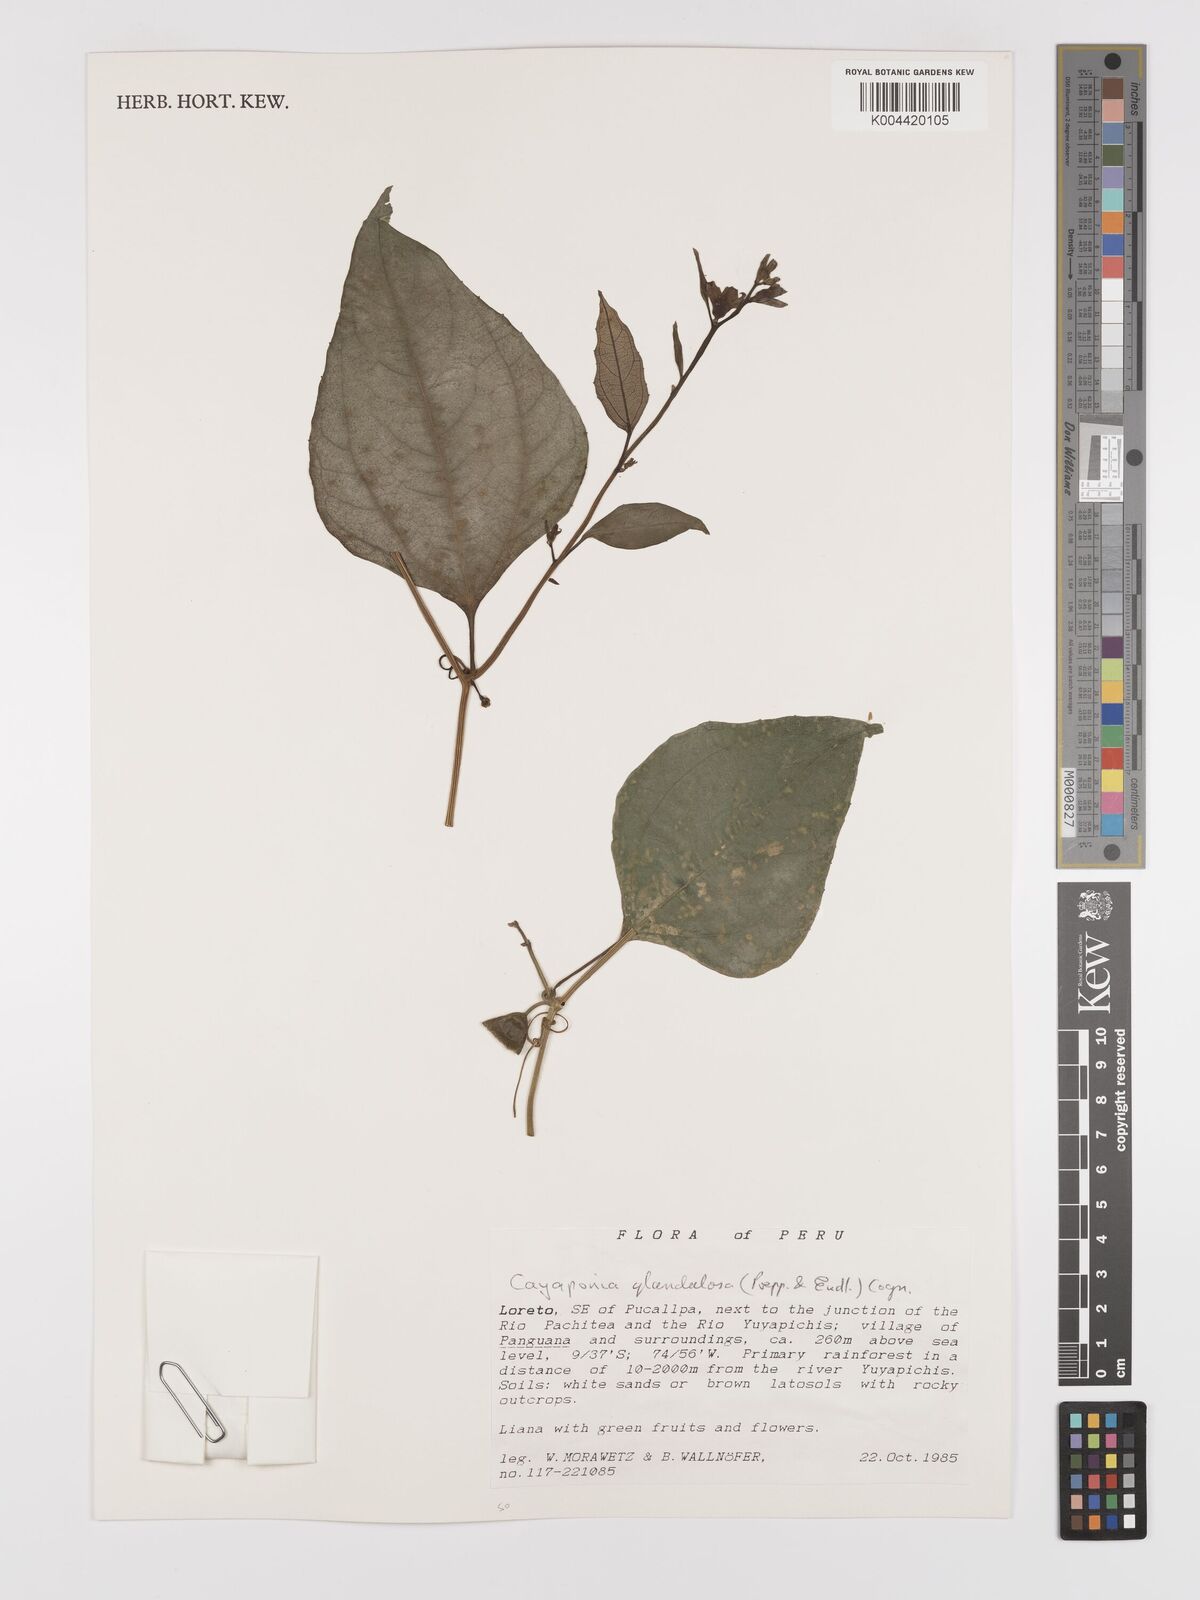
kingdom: Plantae
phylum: Tracheophyta
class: Magnoliopsida
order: Cucurbitales
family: Cucurbitaceae
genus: Cayaponia
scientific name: Cayaponia glandulosa
